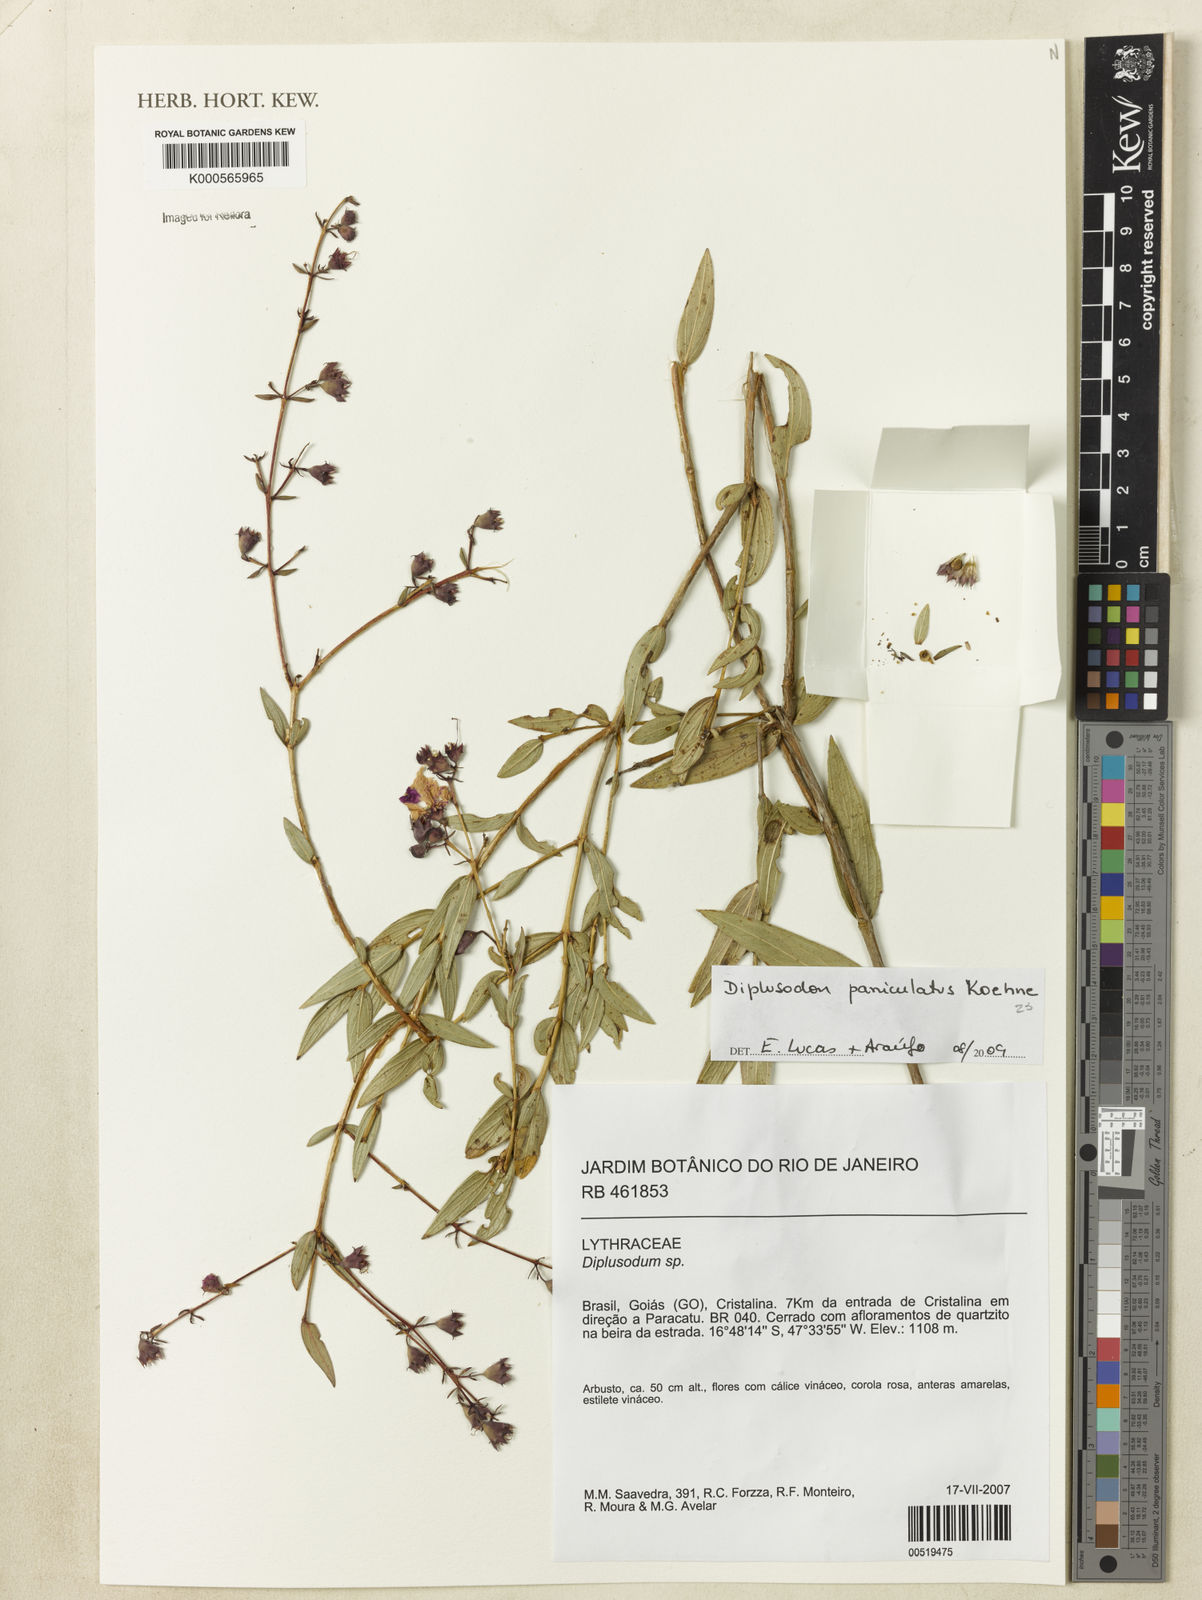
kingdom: Plantae
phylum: Tracheophyta
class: Magnoliopsida
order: Myrtales
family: Lythraceae
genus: Diplusodon
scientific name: Diplusodon panniculatus
